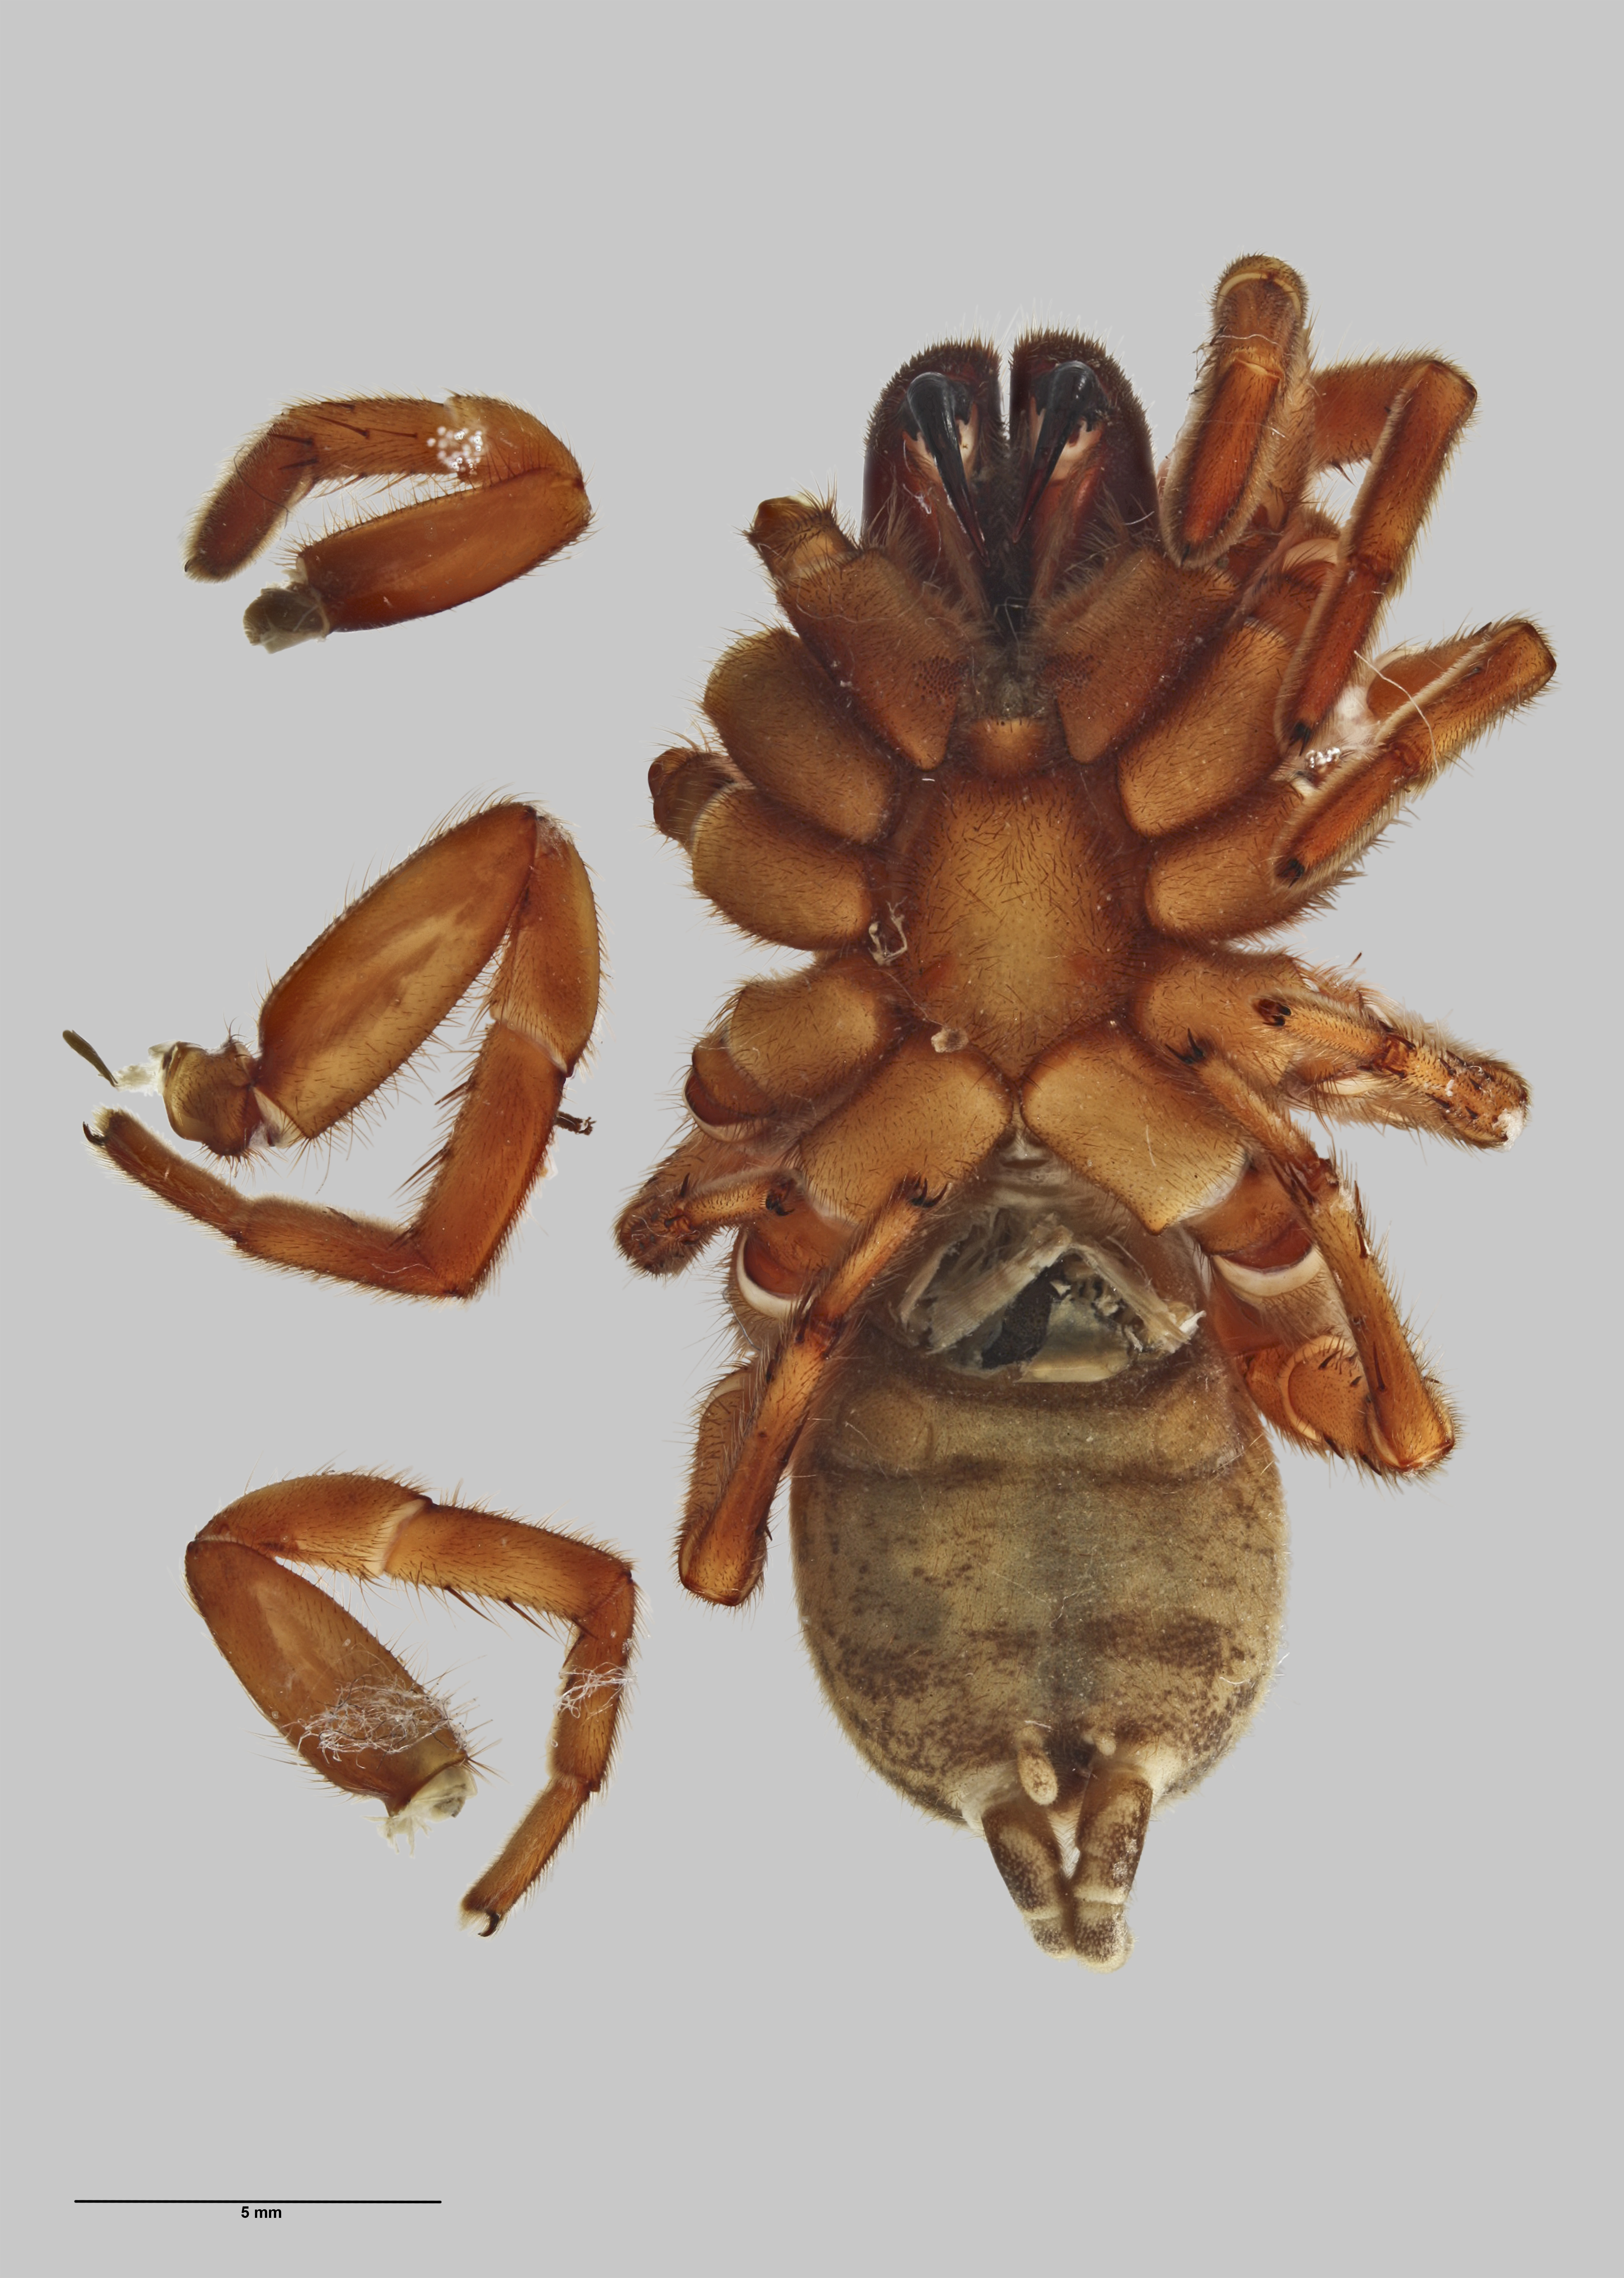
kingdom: Animalia
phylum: Arthropoda
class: Arachnida
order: Araneae
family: Pycnothelidae
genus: Stanwellia
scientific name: Stanwellia
